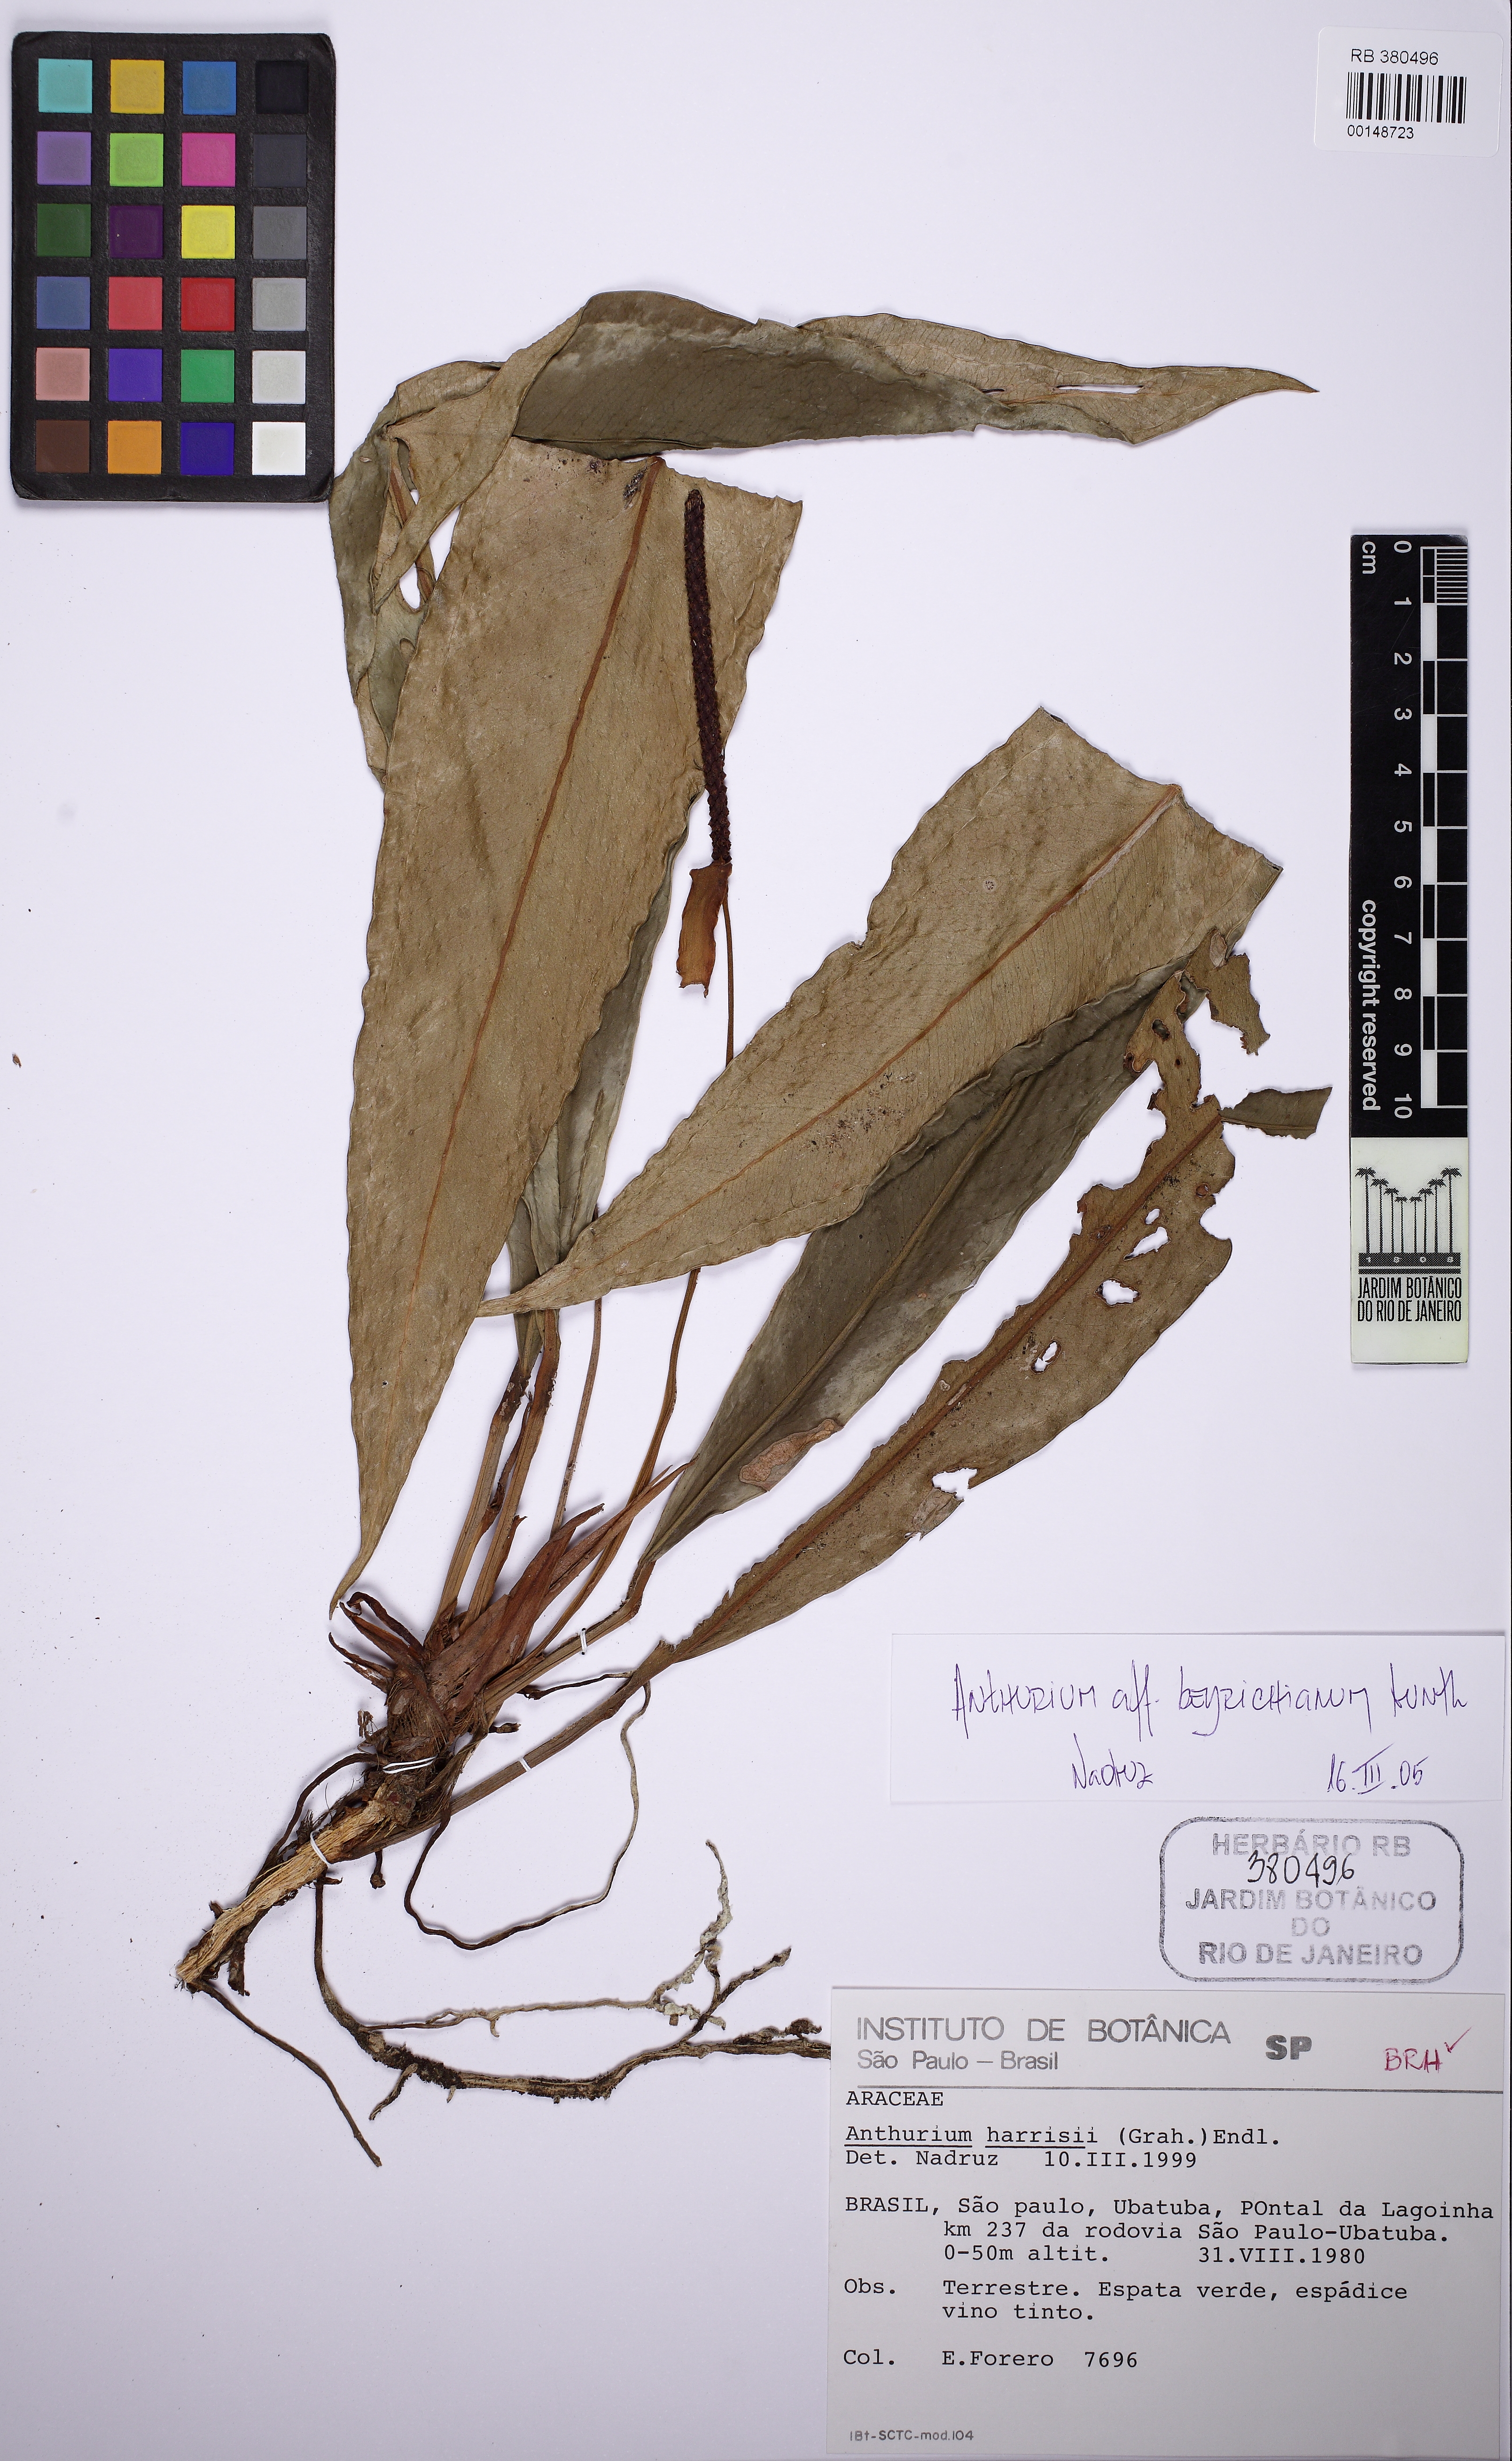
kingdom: Plantae
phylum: Tracheophyta
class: Liliopsida
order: Alismatales
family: Araceae
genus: Anthurium
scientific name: Anthurium urvilleanum
